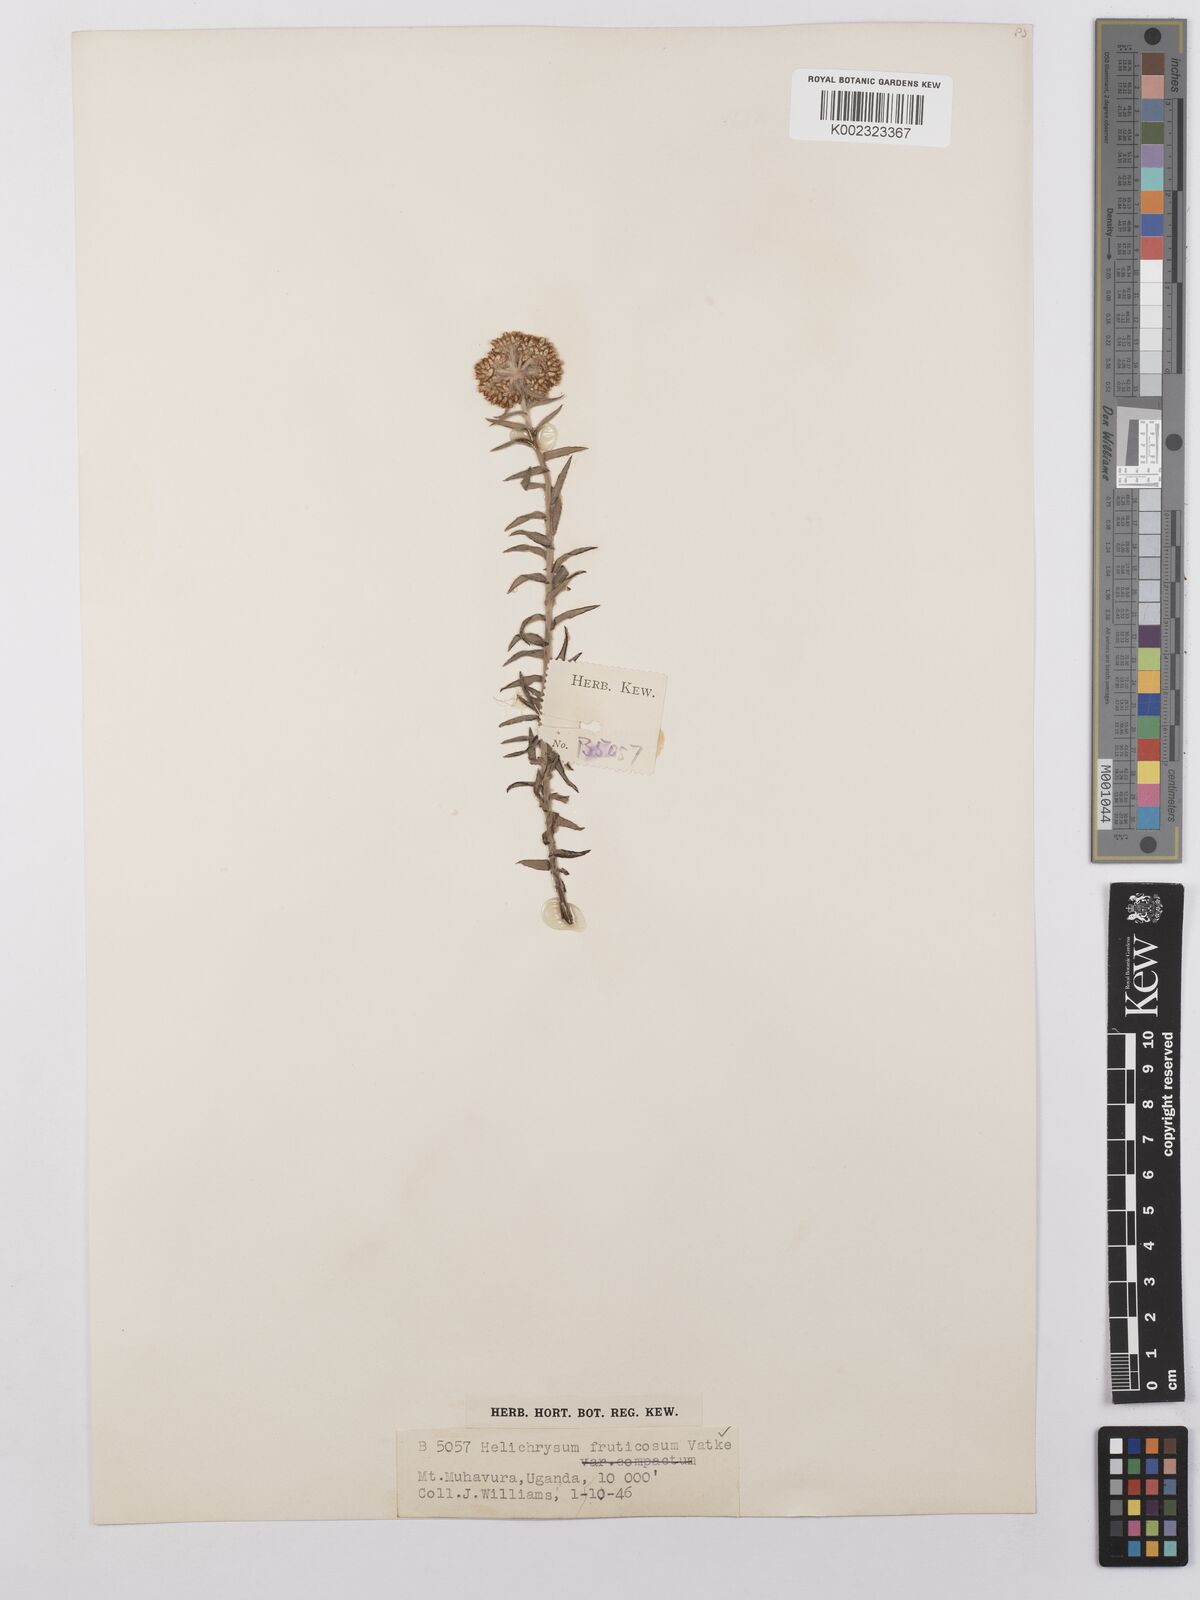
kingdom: Plantae
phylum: Tracheophyta
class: Magnoliopsida
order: Asterales
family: Asteraceae
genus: Helichrysum
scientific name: Helichrysum forskahlii
